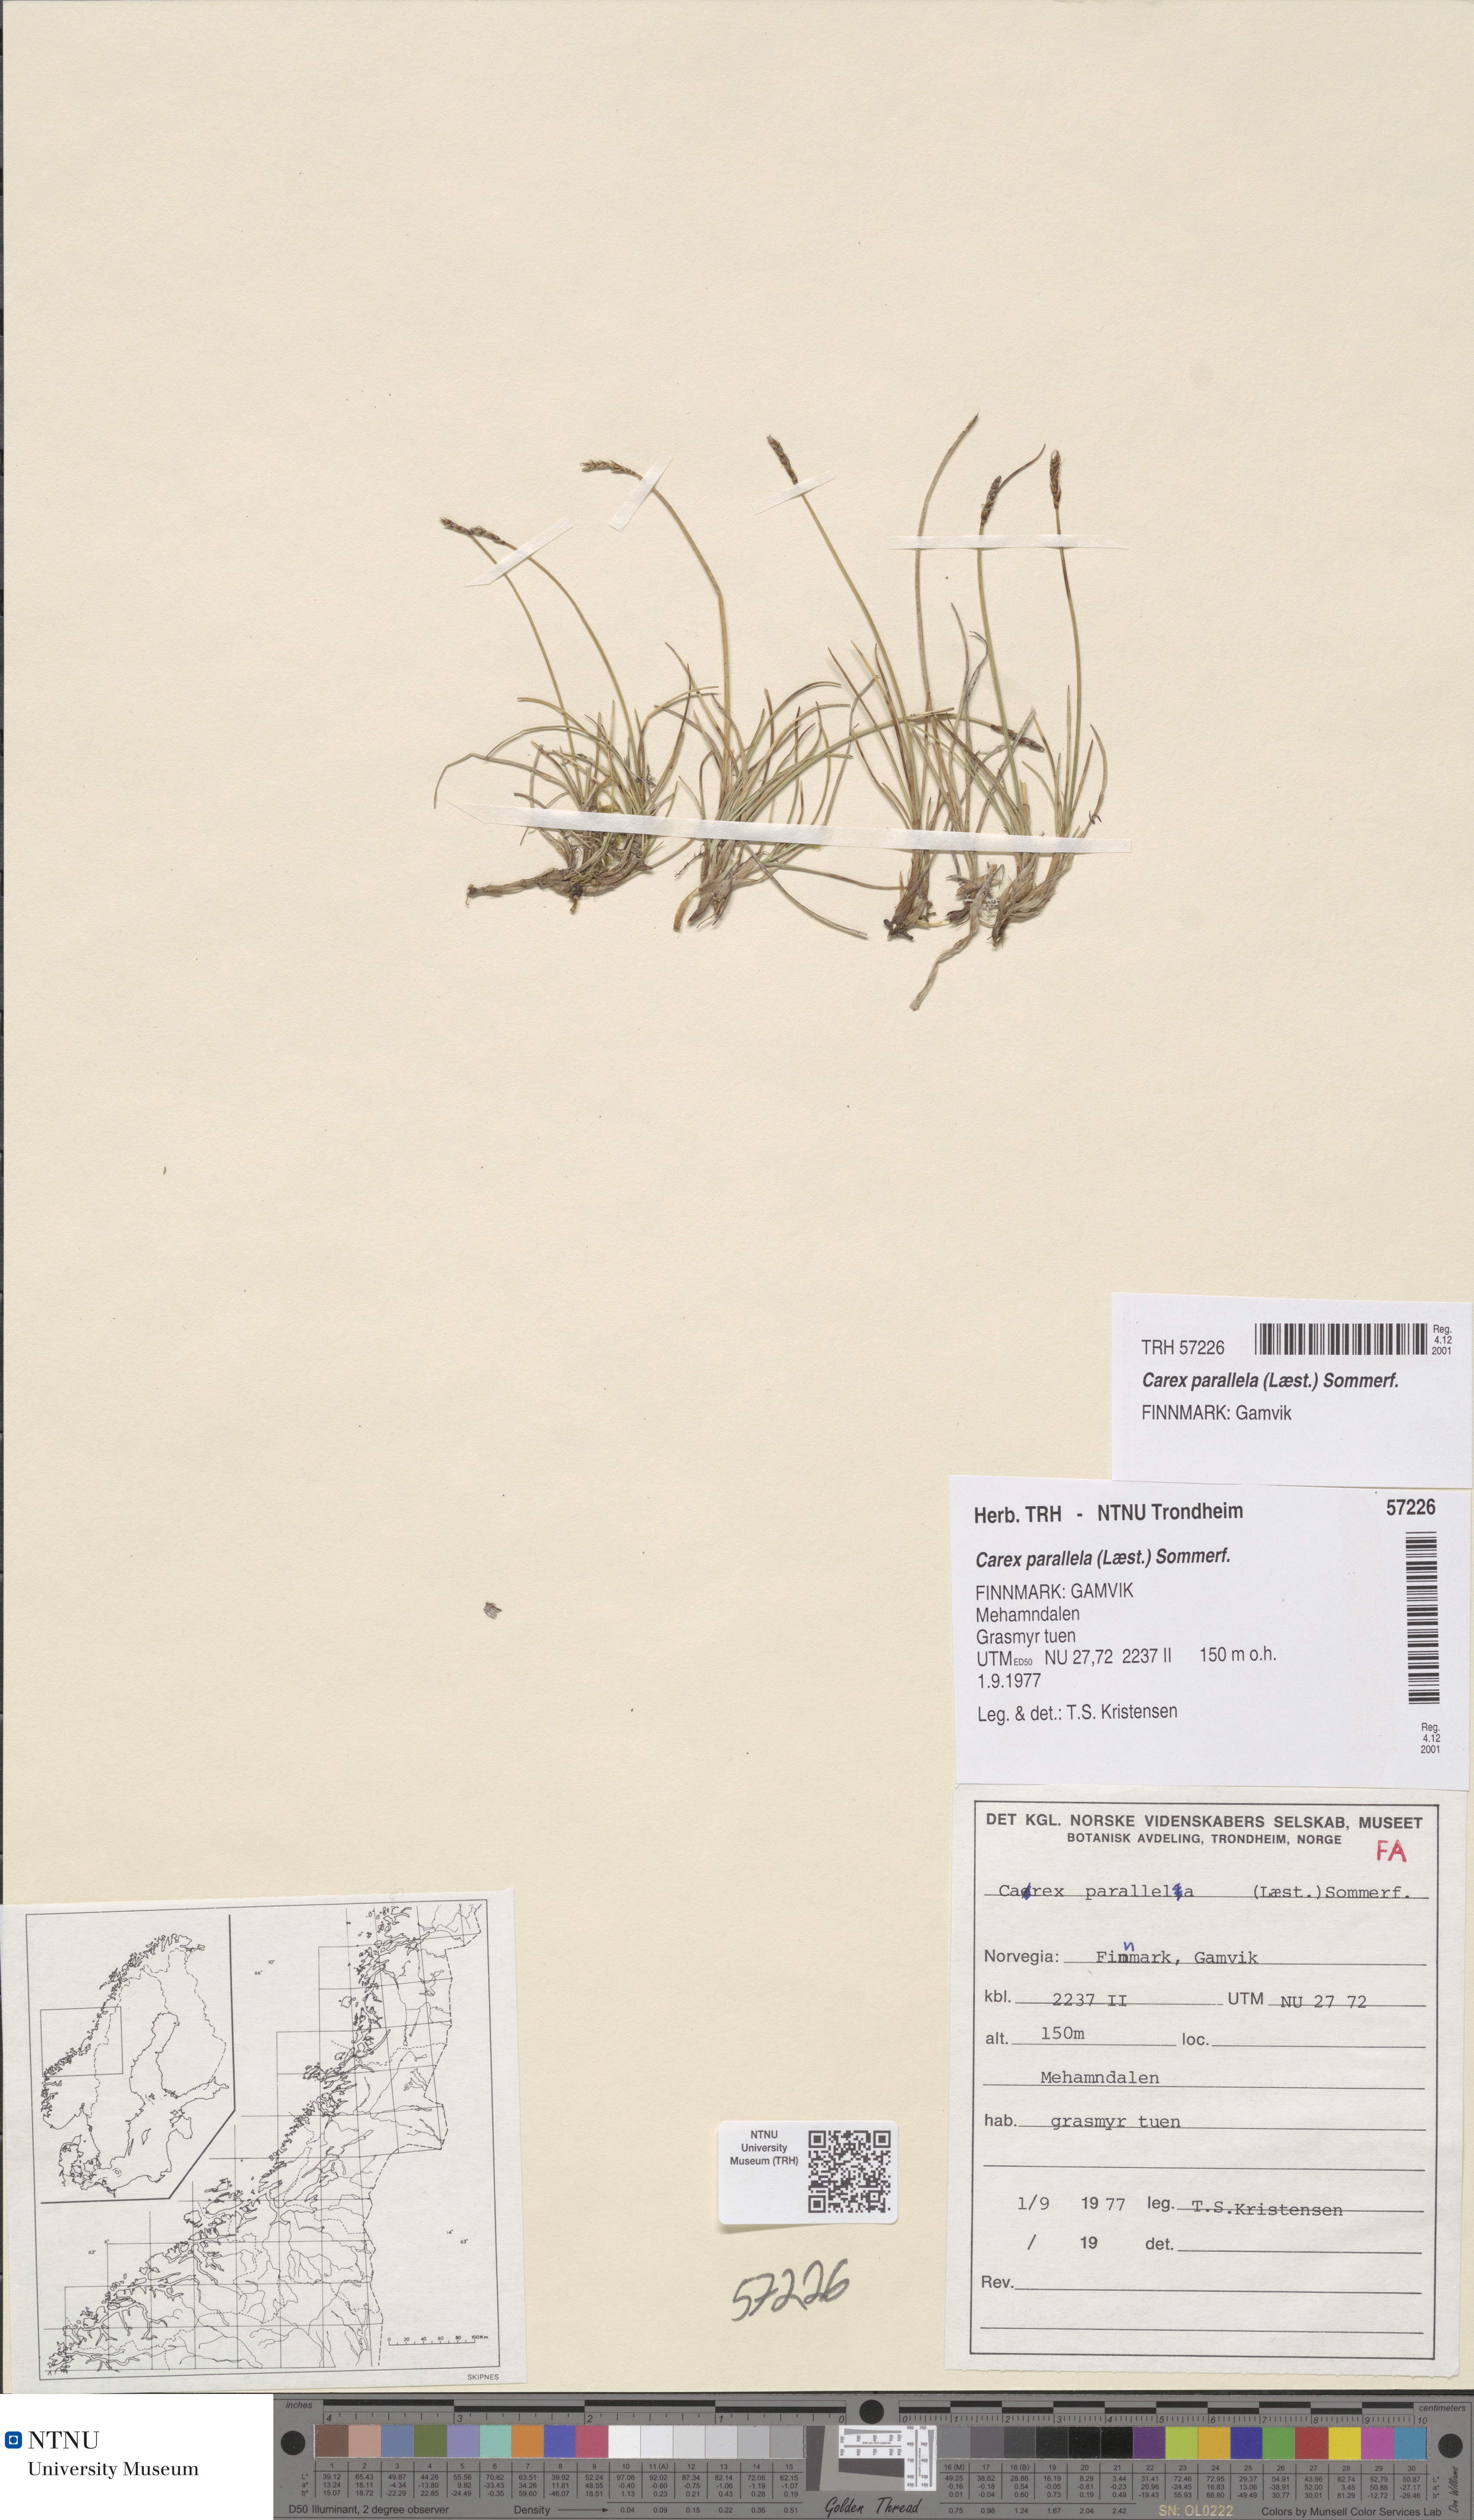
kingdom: Plantae
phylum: Tracheophyta
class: Liliopsida
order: Poales
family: Cyperaceae
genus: Carex
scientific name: Carex parallela
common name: Parallel sedge
